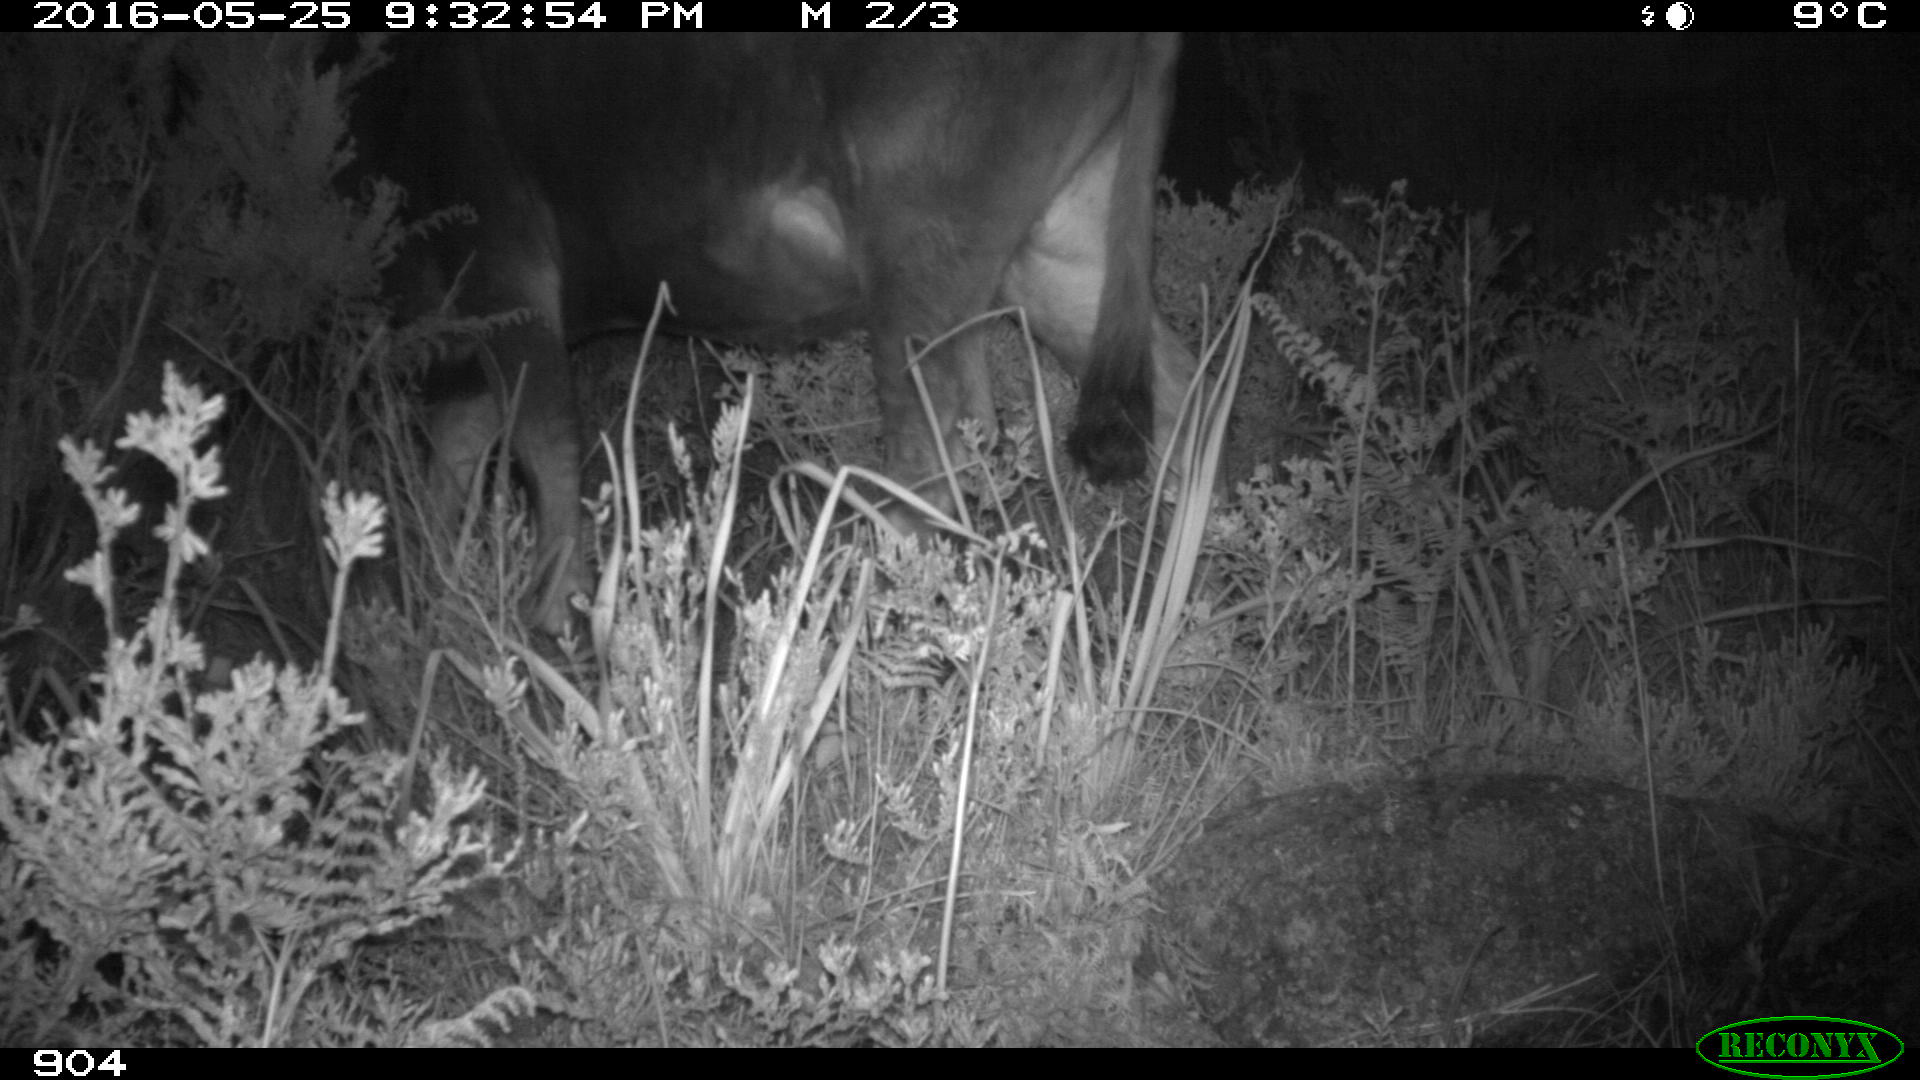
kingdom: Animalia
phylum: Chordata
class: Mammalia
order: Artiodactyla
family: Bovidae
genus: Bos
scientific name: Bos taurus
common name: Domesticated cattle
